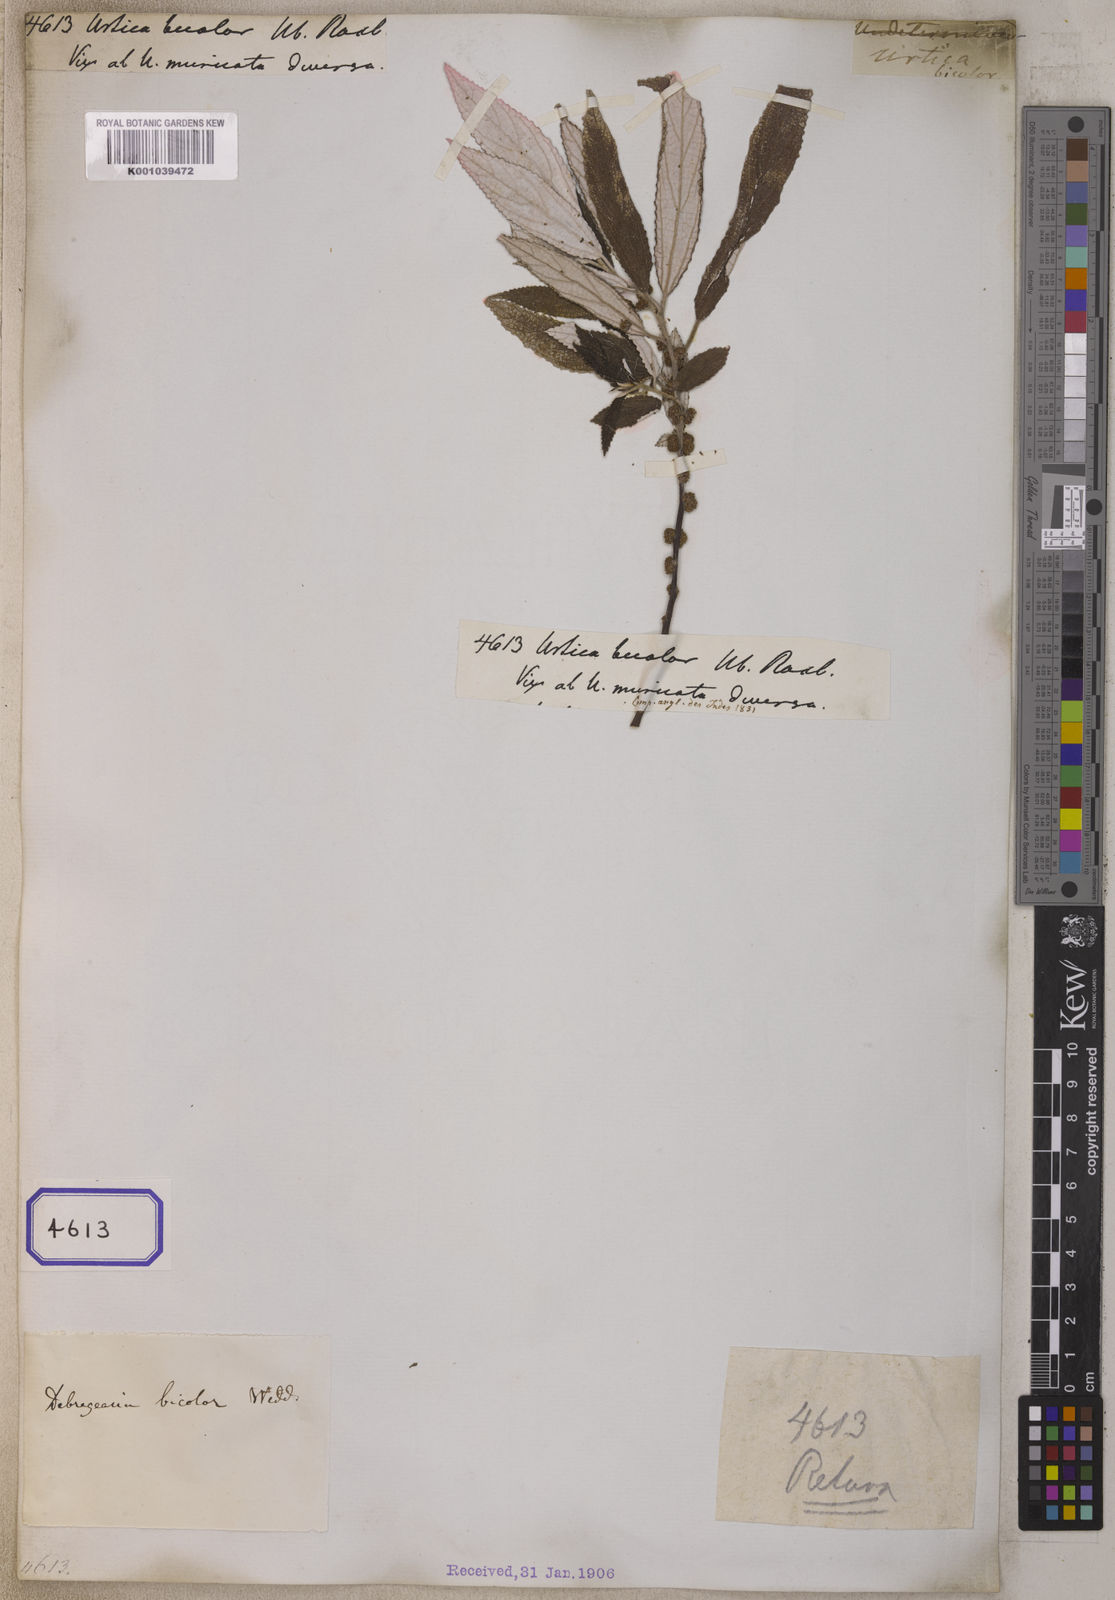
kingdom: Plantae
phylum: Tracheophyta
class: Magnoliopsida
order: Rosales
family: Urticaceae
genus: Debregeasia
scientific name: Debregeasia saeneb
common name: Himalayan wild rhea
